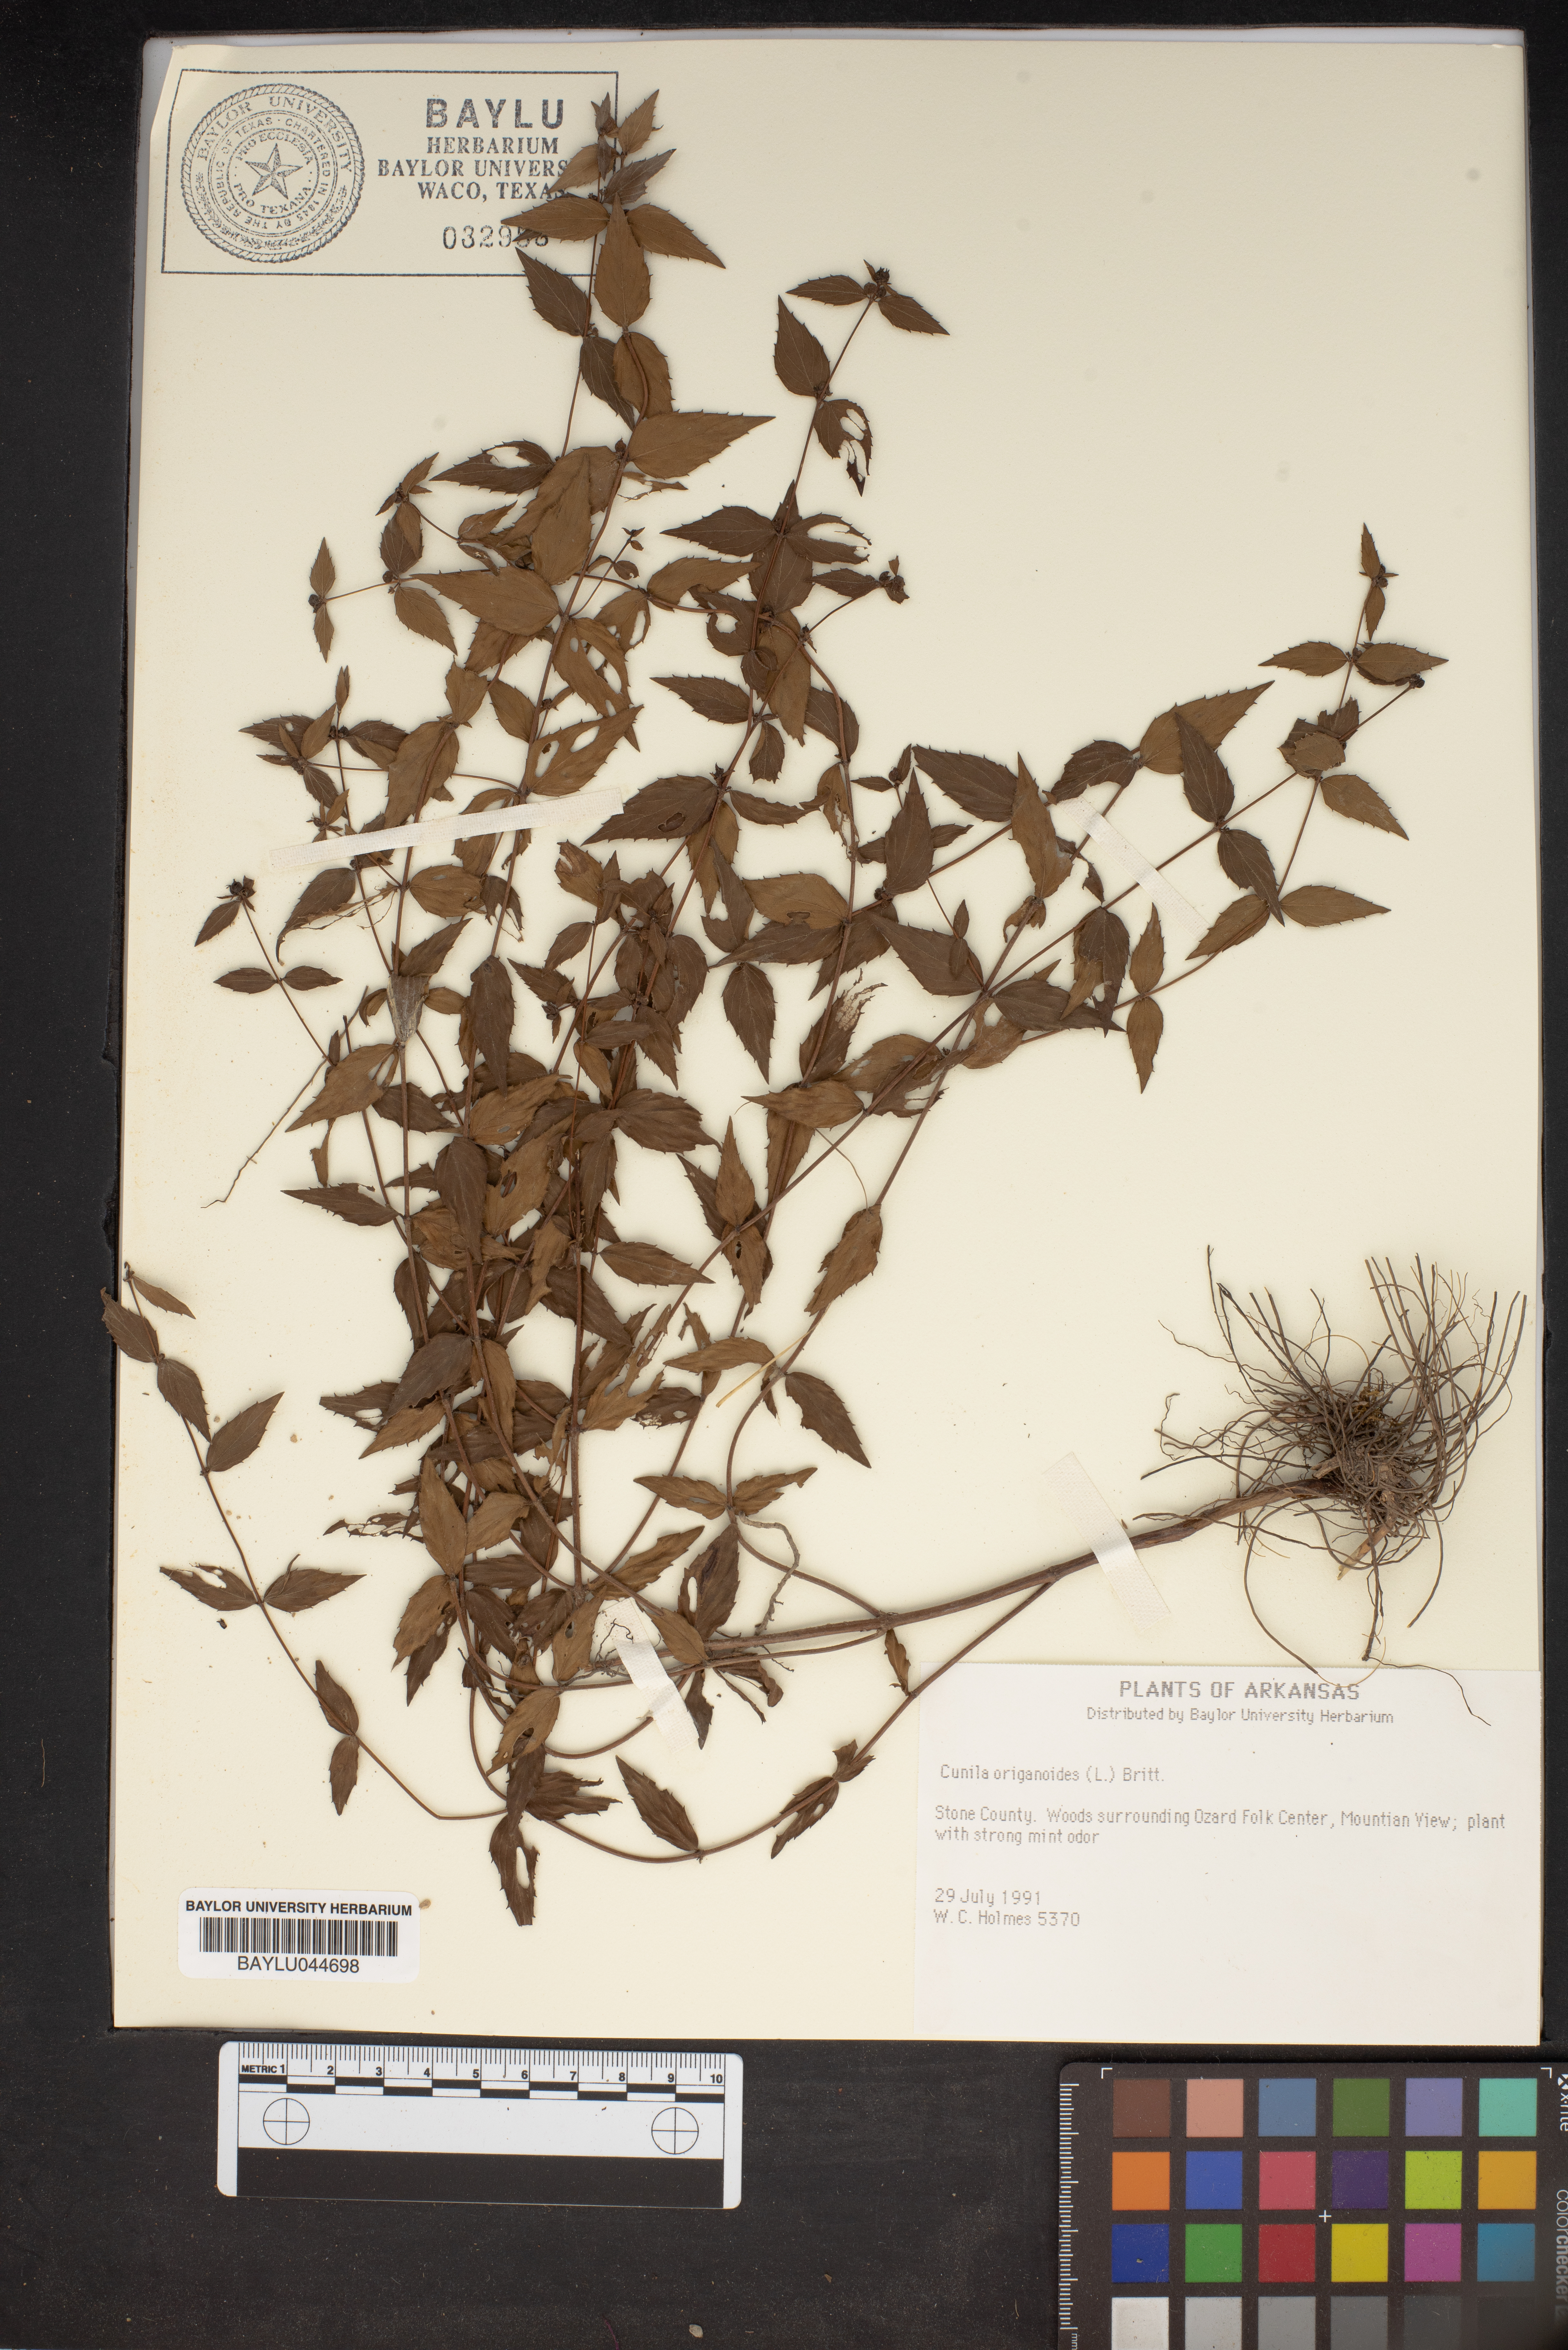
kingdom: Plantae
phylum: Tracheophyta
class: Magnoliopsida
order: Lamiales
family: Lamiaceae
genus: Cunila
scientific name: Cunila origanoides
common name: American dittany
